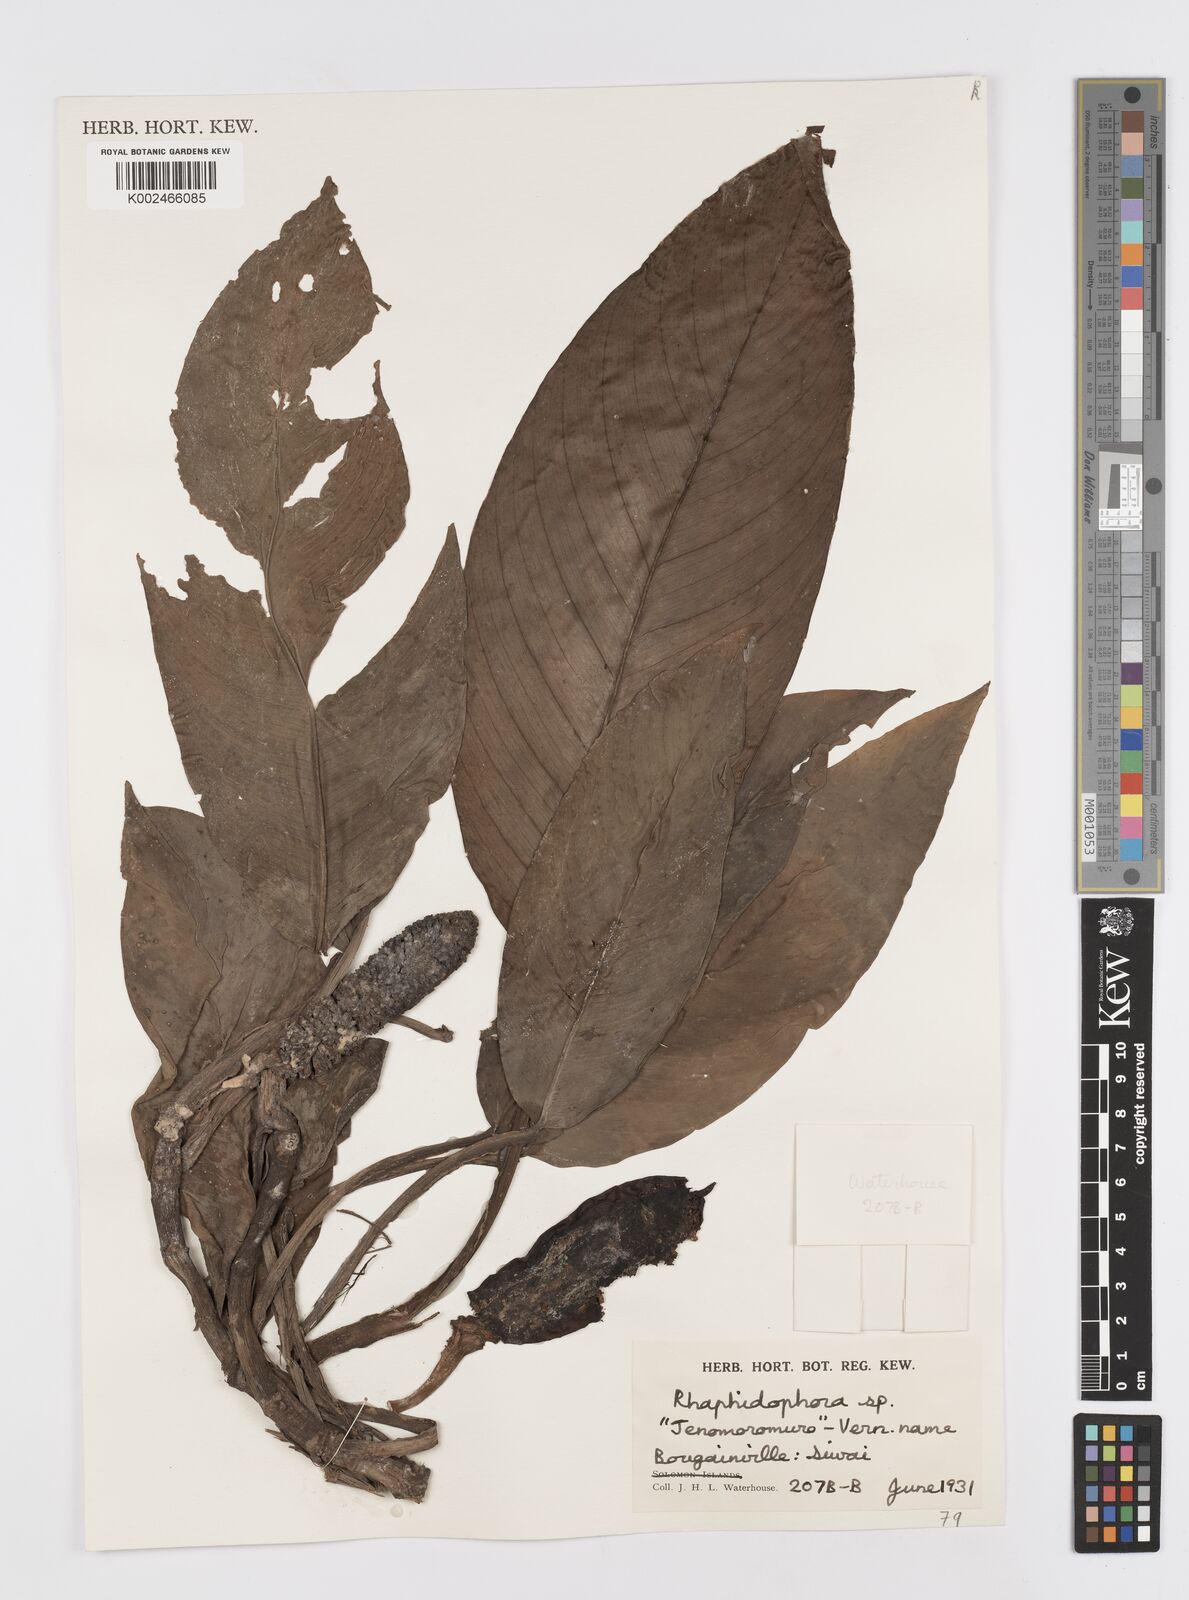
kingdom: Plantae
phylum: Tracheophyta
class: Liliopsida
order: Alismatales
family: Araceae
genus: Rhaphidophora
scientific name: Rhaphidophora mima
